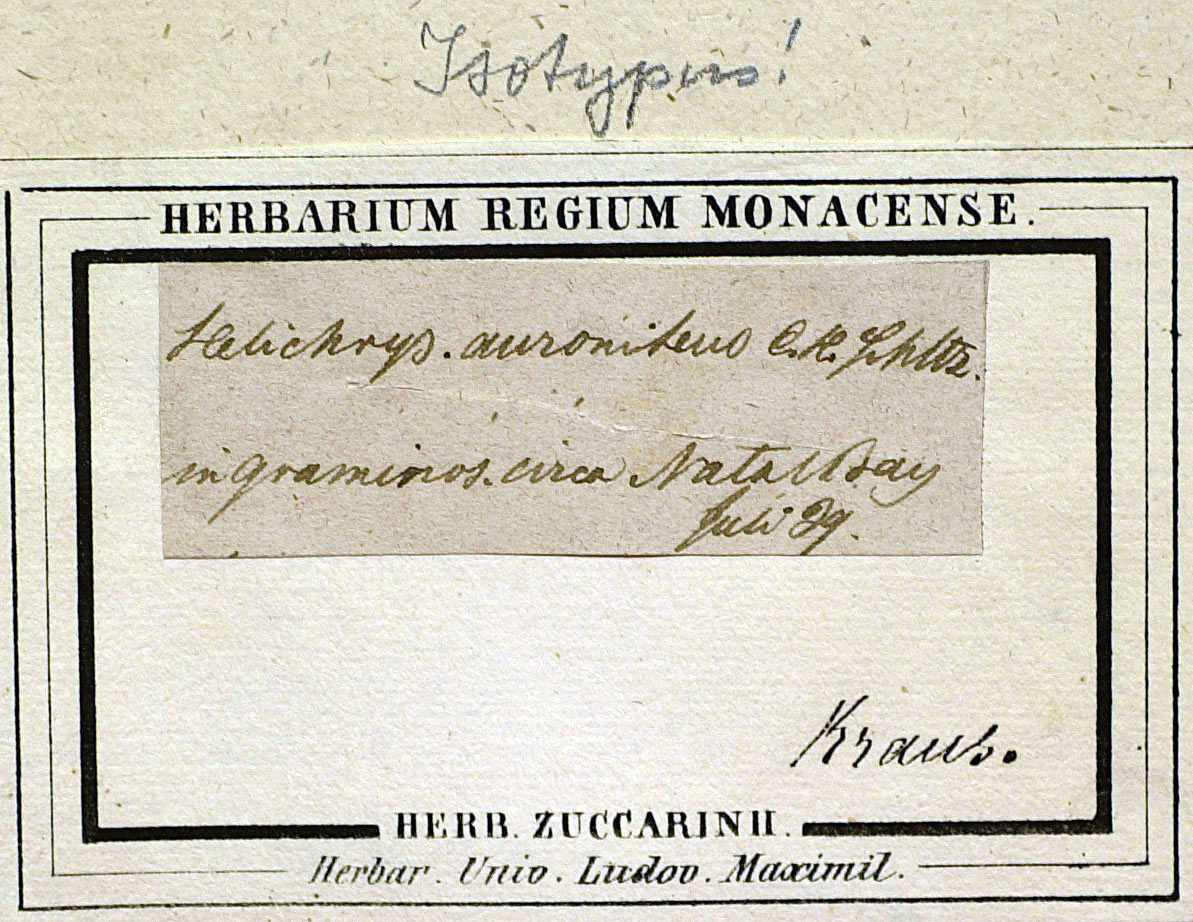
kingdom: Plantae
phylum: Tracheophyta
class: Magnoliopsida
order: Asterales
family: Asteraceae
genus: Helichrysum
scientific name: Helichrysum auronitens
